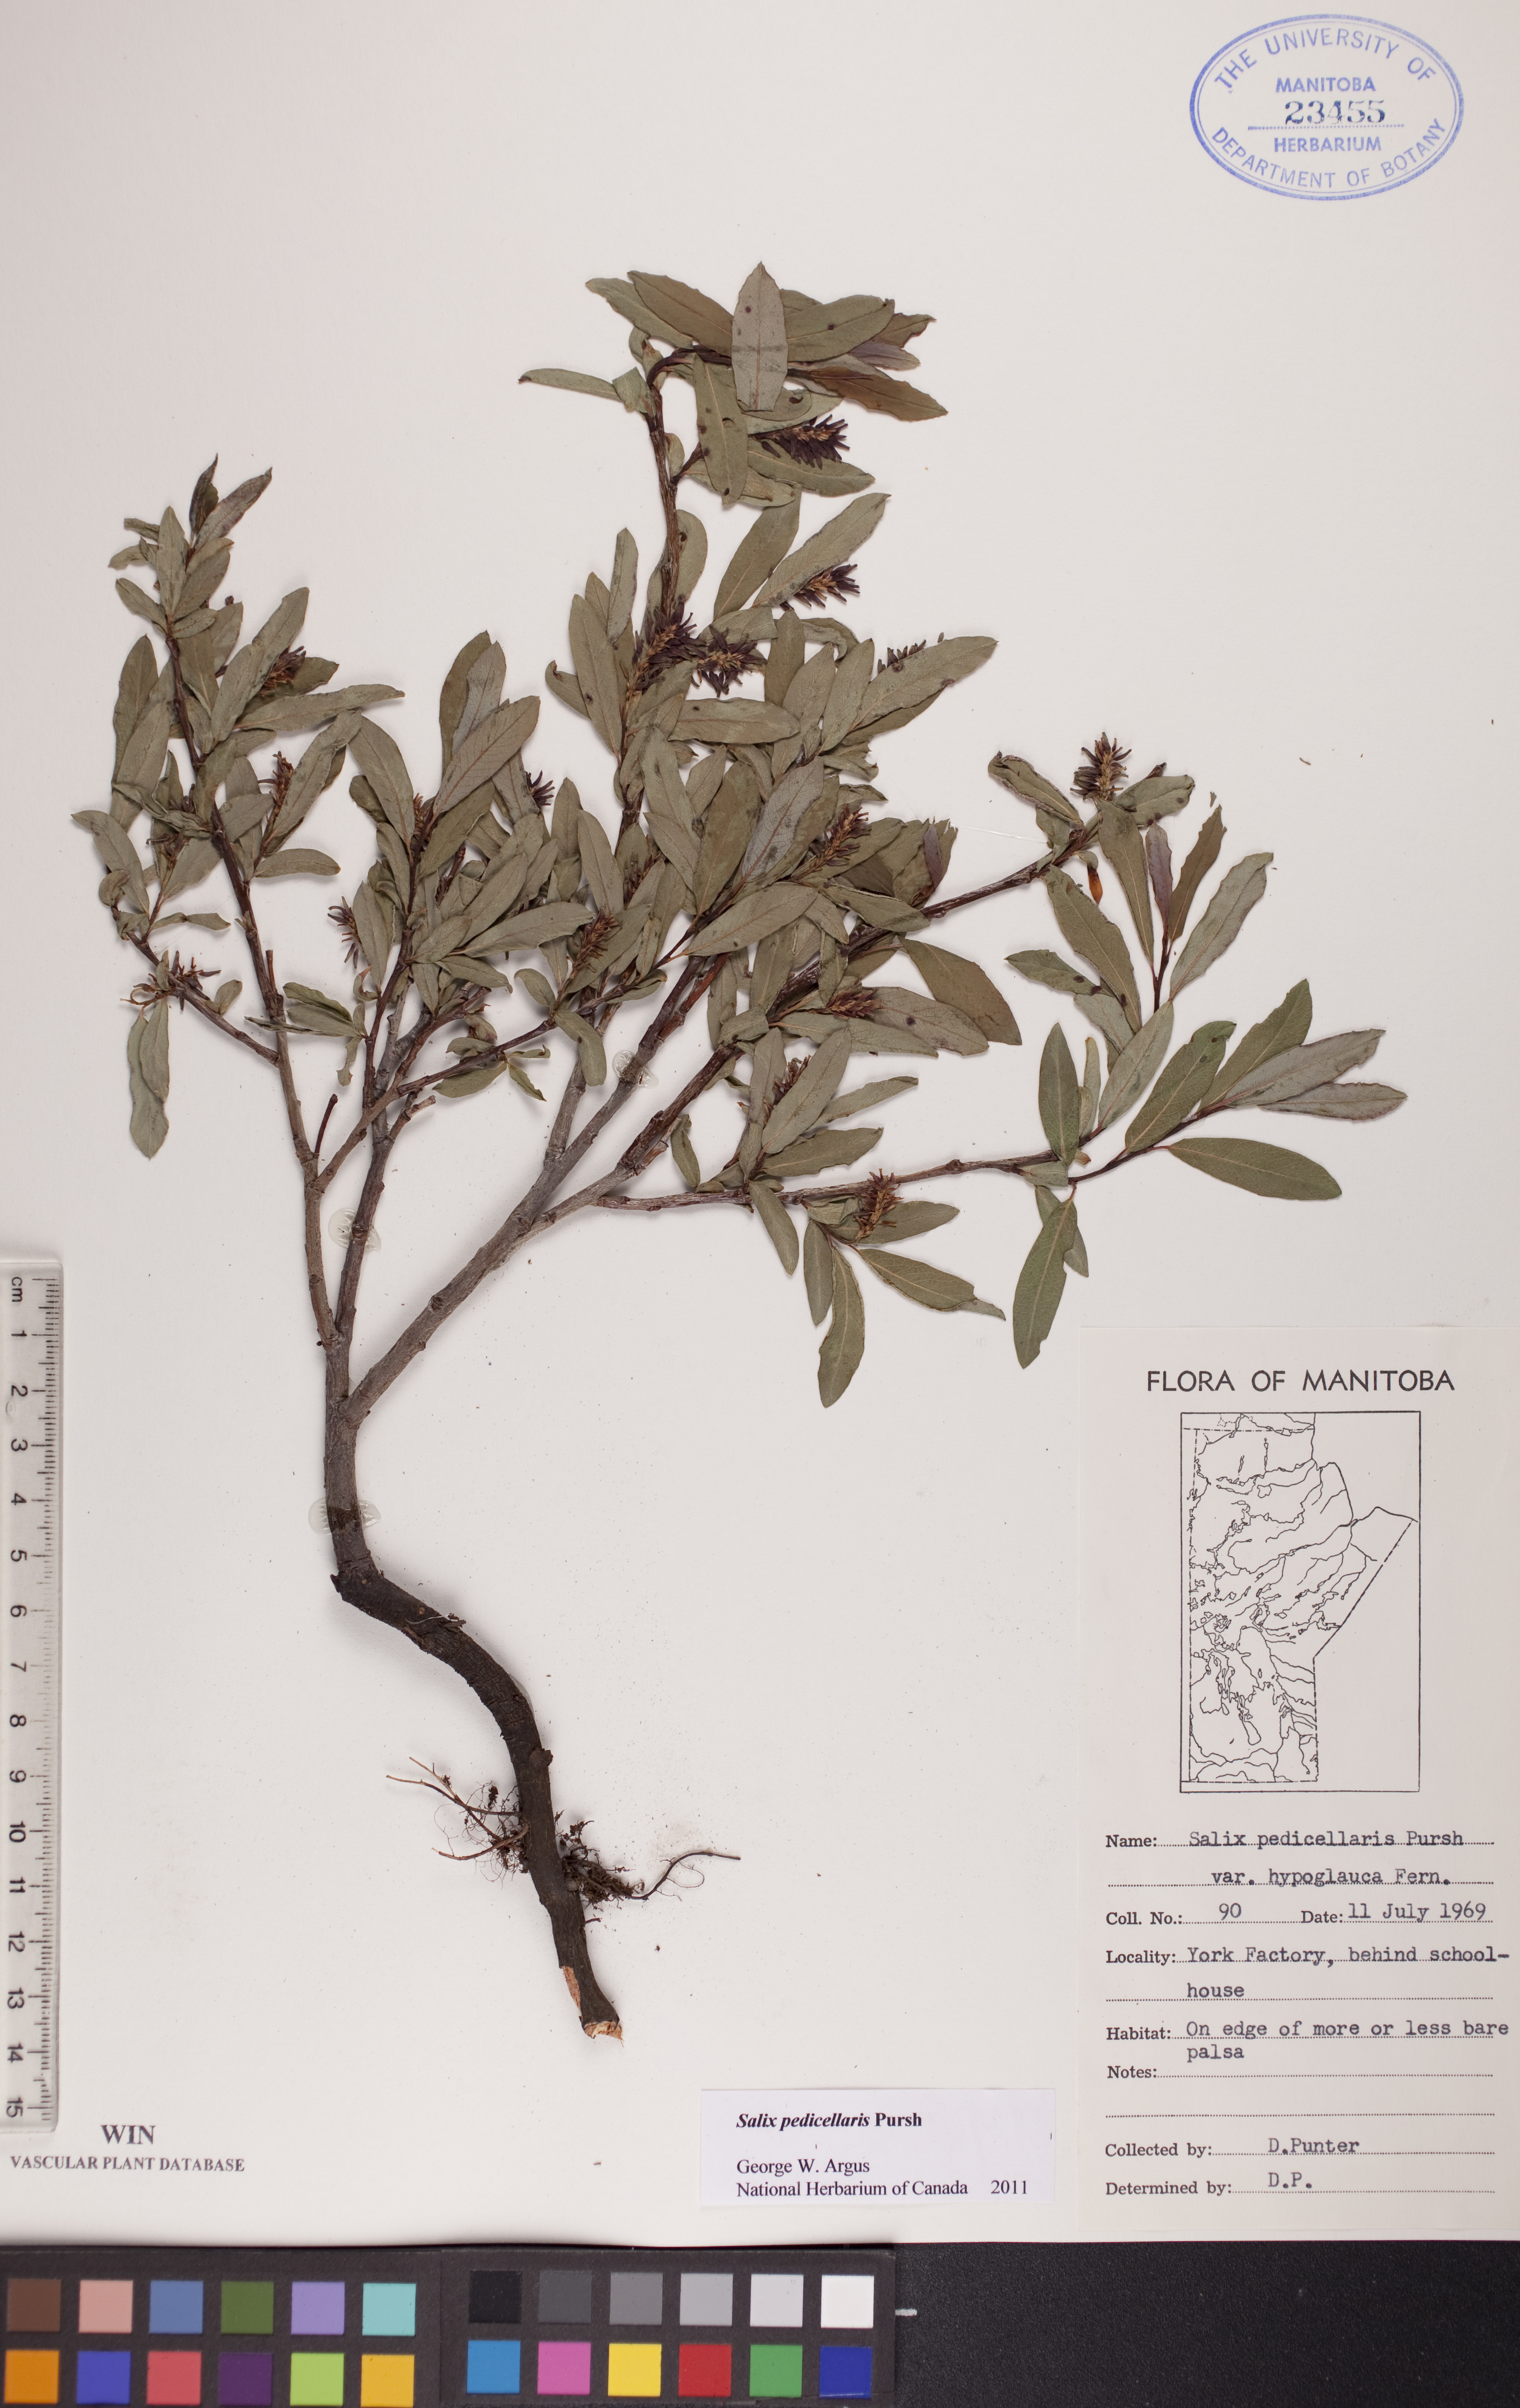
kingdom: Plantae
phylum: Tracheophyta
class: Magnoliopsida
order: Malpighiales
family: Salicaceae
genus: Salix
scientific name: Salix pedicellaris
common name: Bog willow
